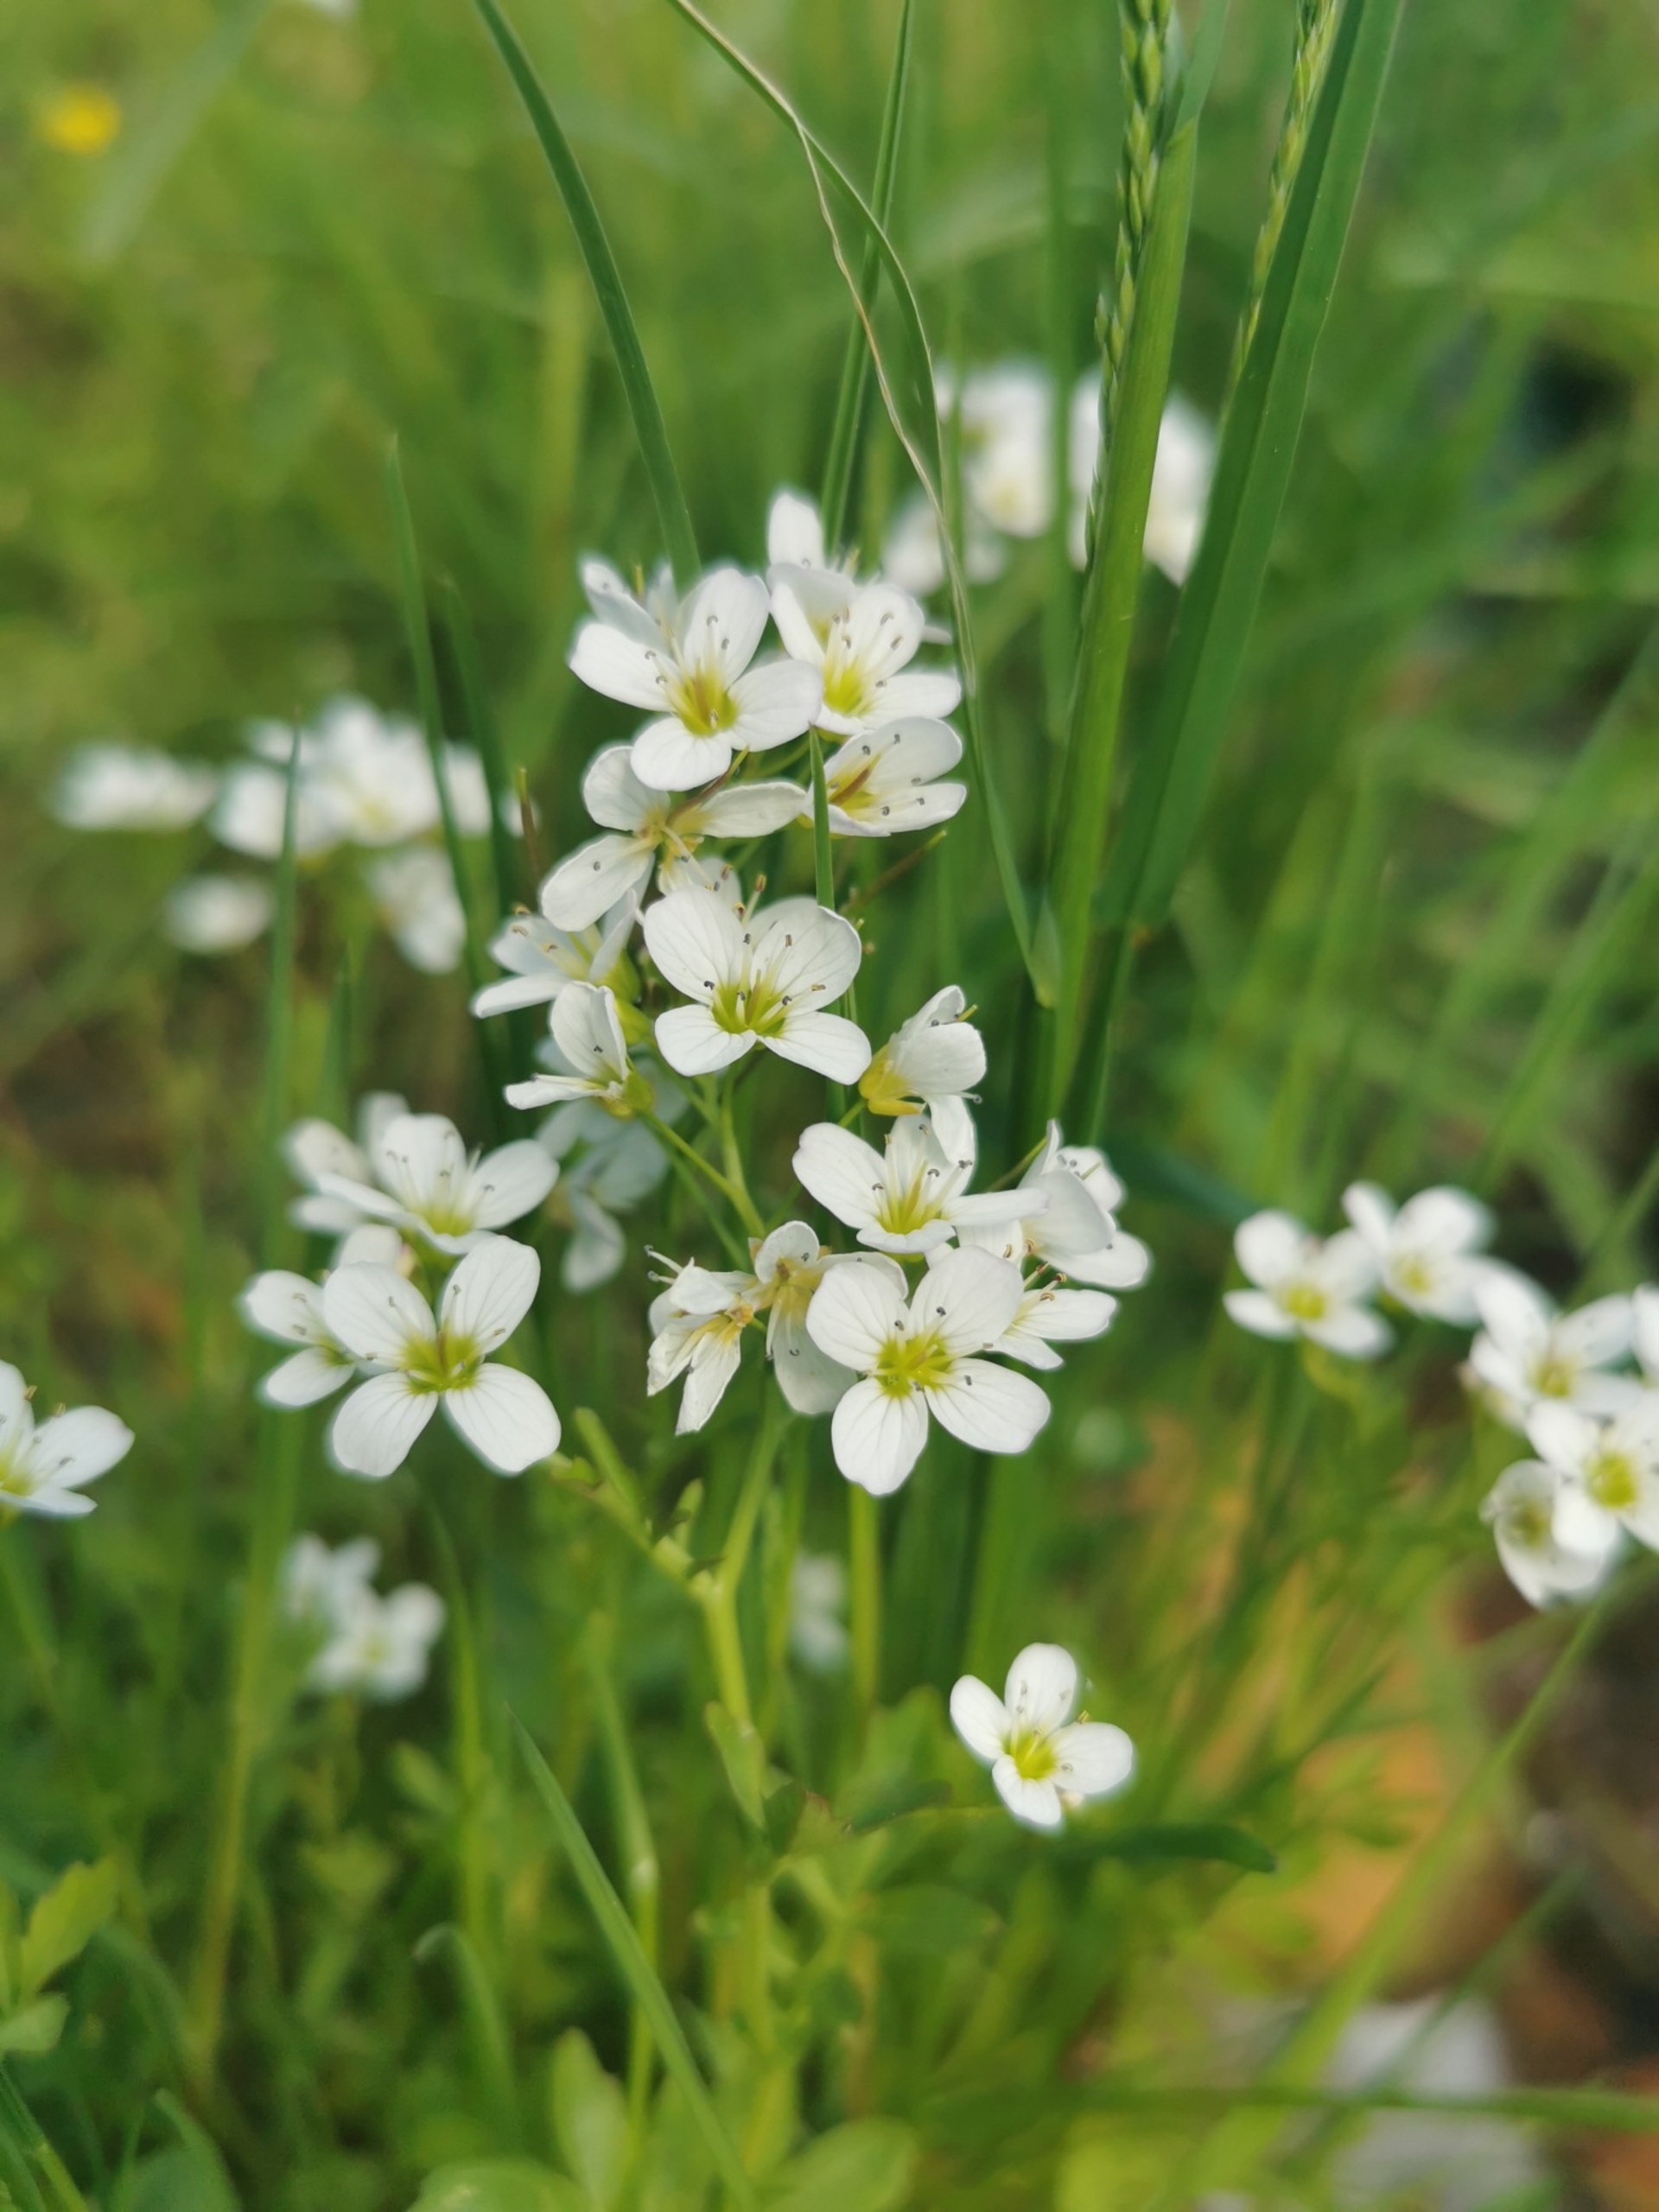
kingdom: Plantae
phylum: Tracheophyta
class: Magnoliopsida
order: Brassicales
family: Brassicaceae
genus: Cardamine
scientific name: Cardamine amara
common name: Vandkarse
